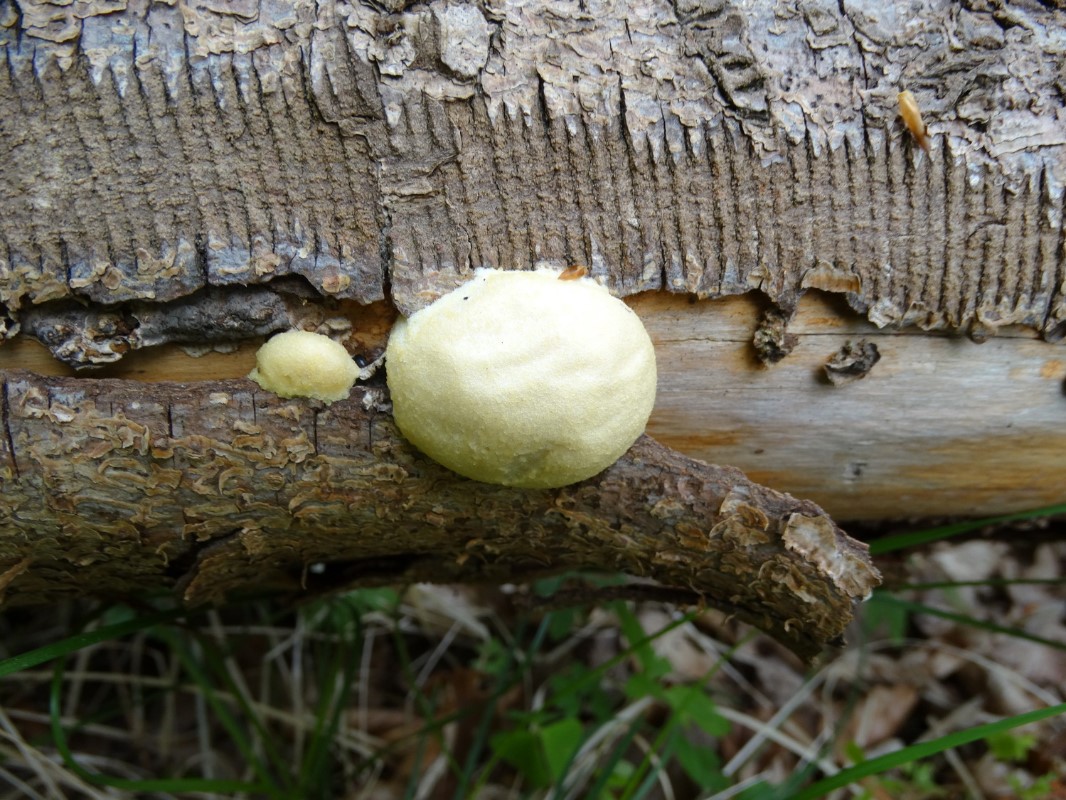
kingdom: Protozoa
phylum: Mycetozoa
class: Myxomycetes
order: Cribrariales
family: Tubiferaceae
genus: Reticularia
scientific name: Reticularia lycoperdon
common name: skinnende støvpude
